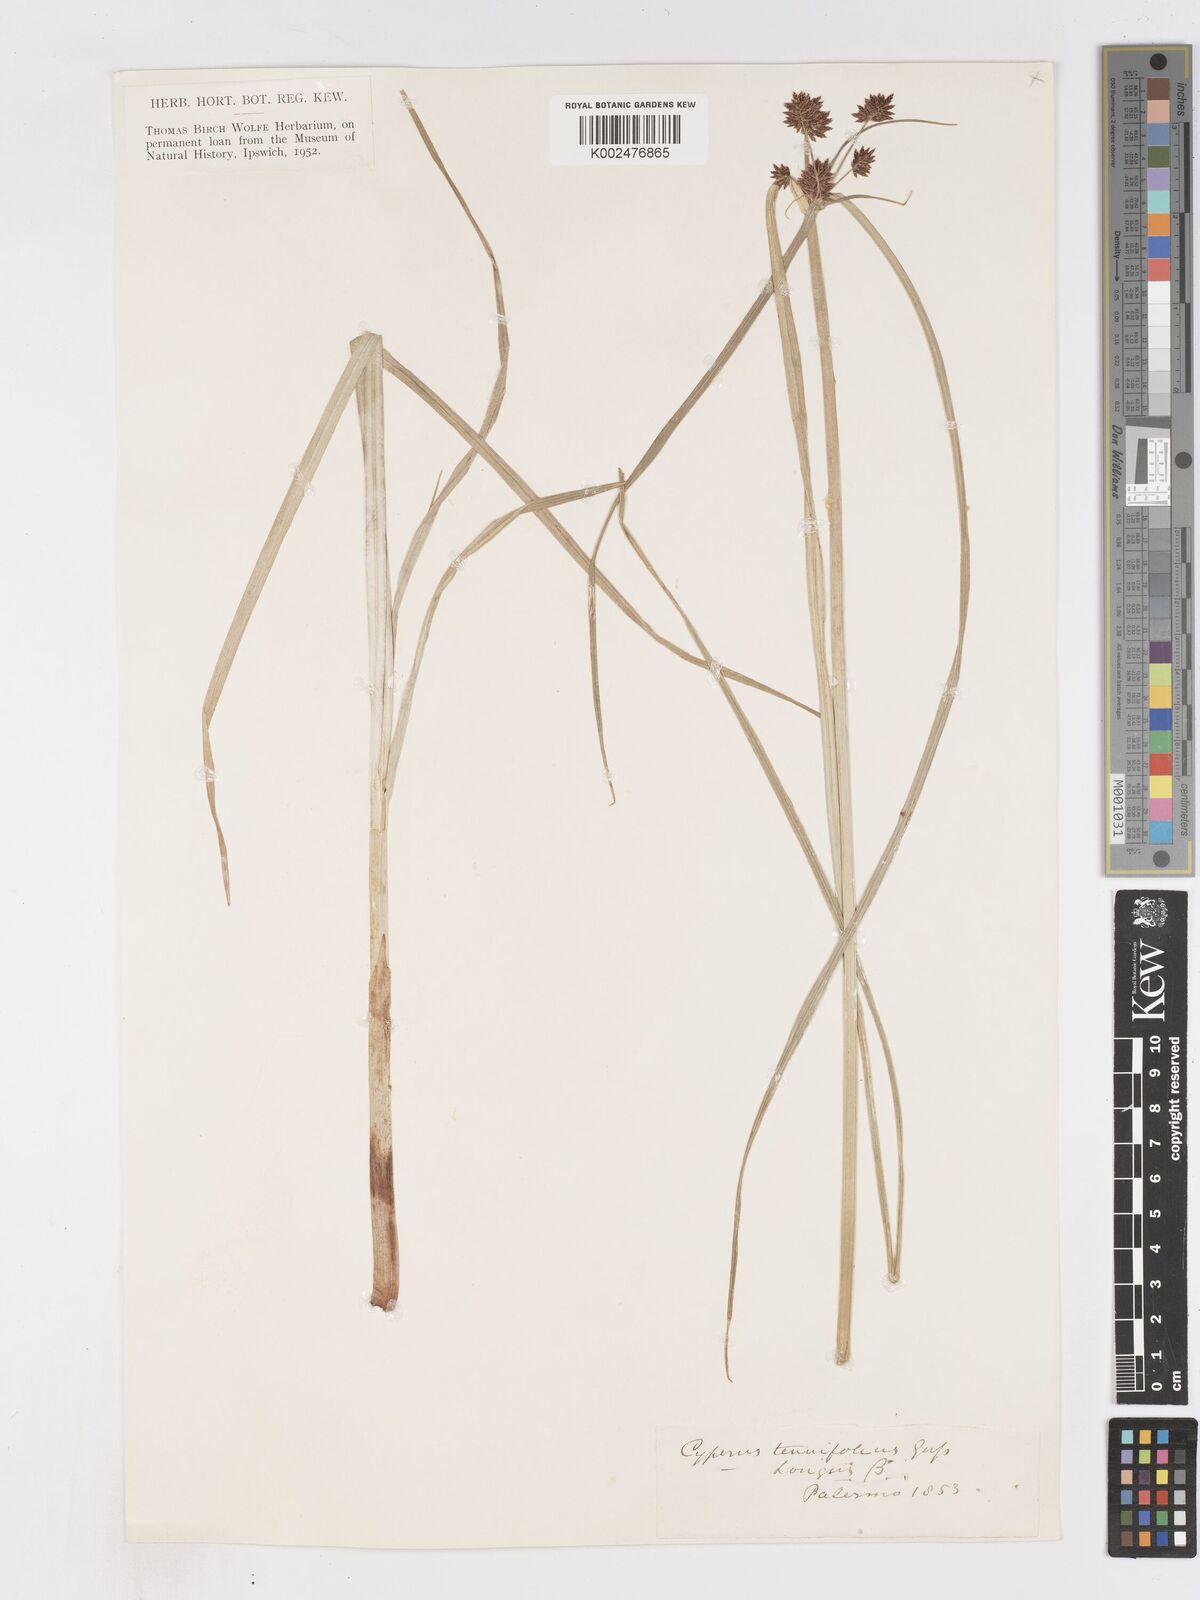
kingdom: Plantae
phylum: Tracheophyta
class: Liliopsida
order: Poales
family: Cyperaceae
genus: Cyperus
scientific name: Cyperus longus
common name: Galingale
